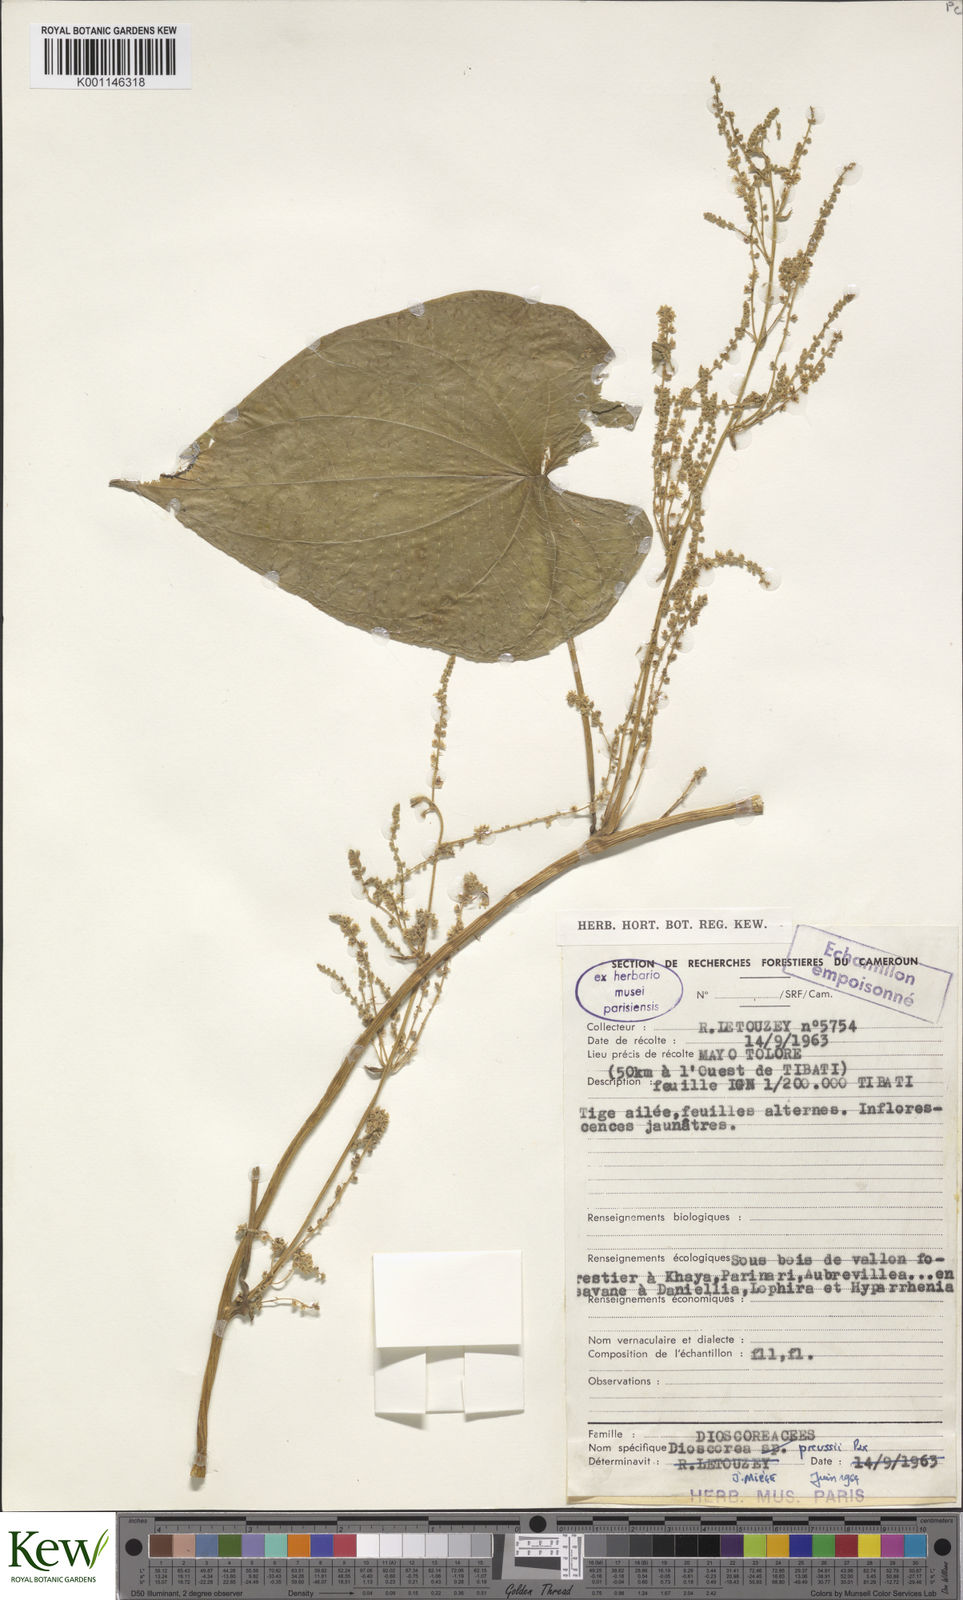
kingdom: Plantae
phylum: Tracheophyta
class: Liliopsida
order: Dioscoreales
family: Dioscoreaceae
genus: Dioscorea
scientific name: Dioscorea preussii
